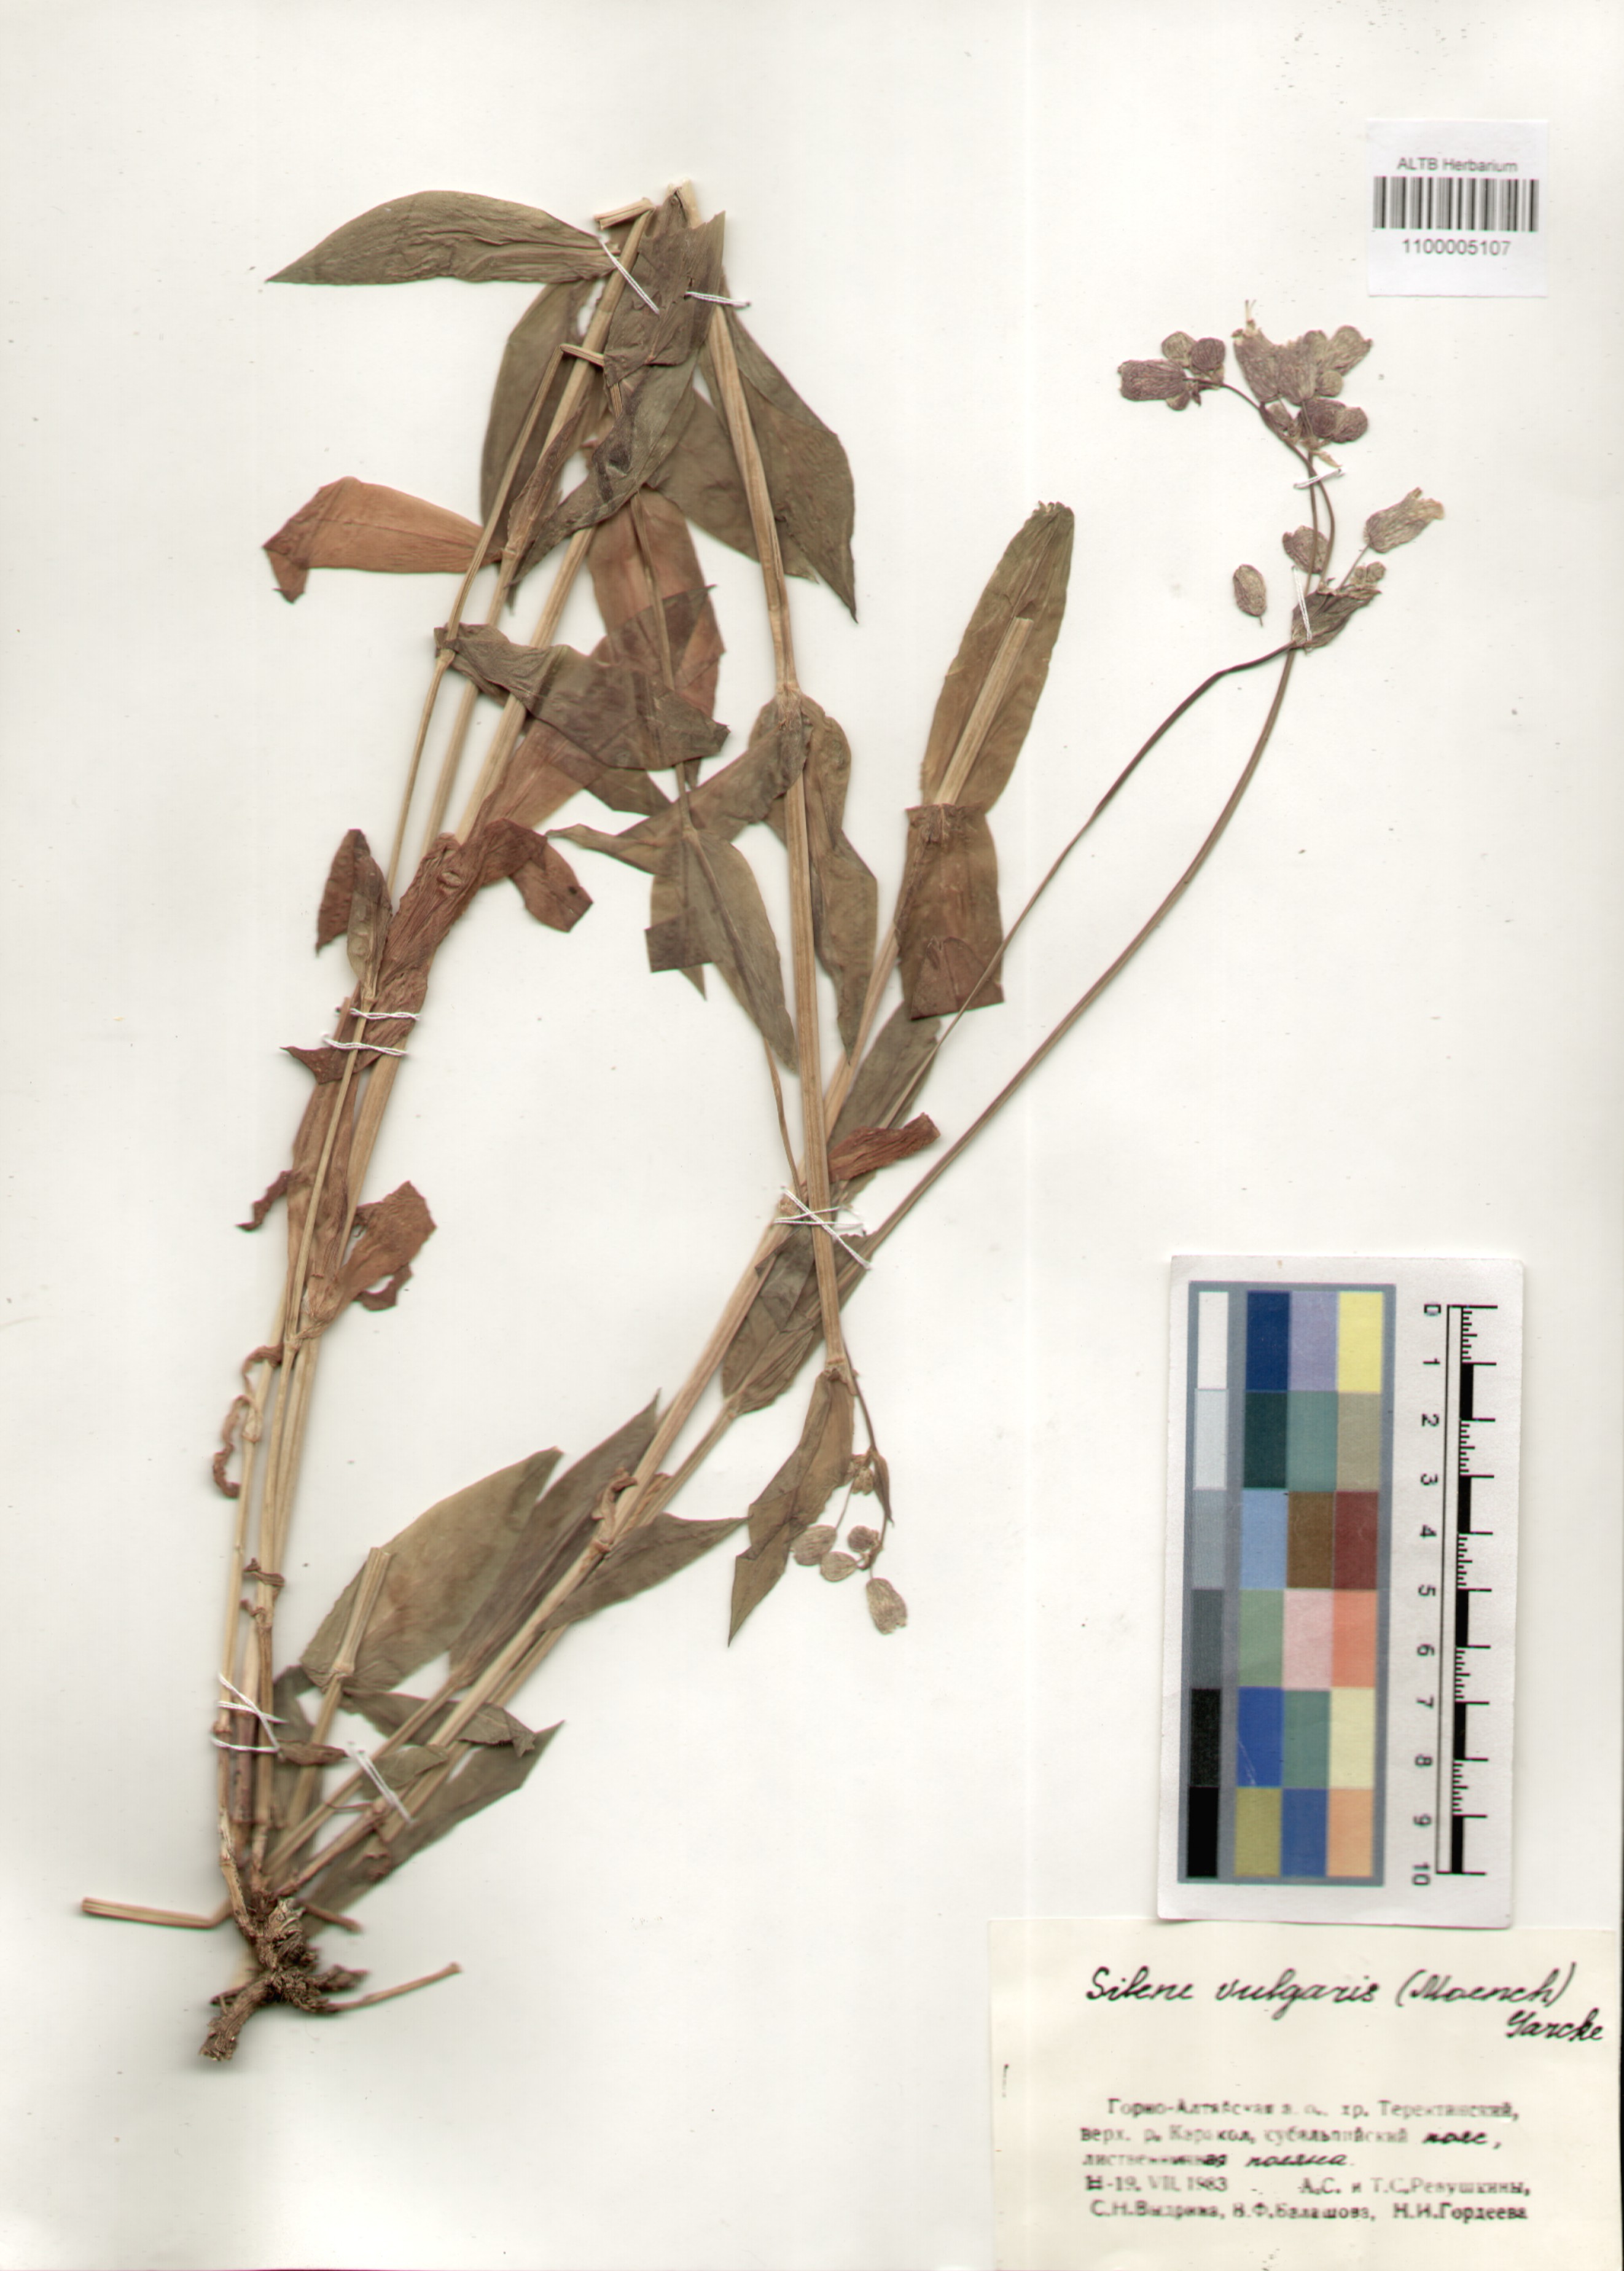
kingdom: Plantae
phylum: Tracheophyta
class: Magnoliopsida
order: Caryophyllales
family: Caryophyllaceae
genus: Silene
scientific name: Silene vulgaris
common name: Bladder campion
